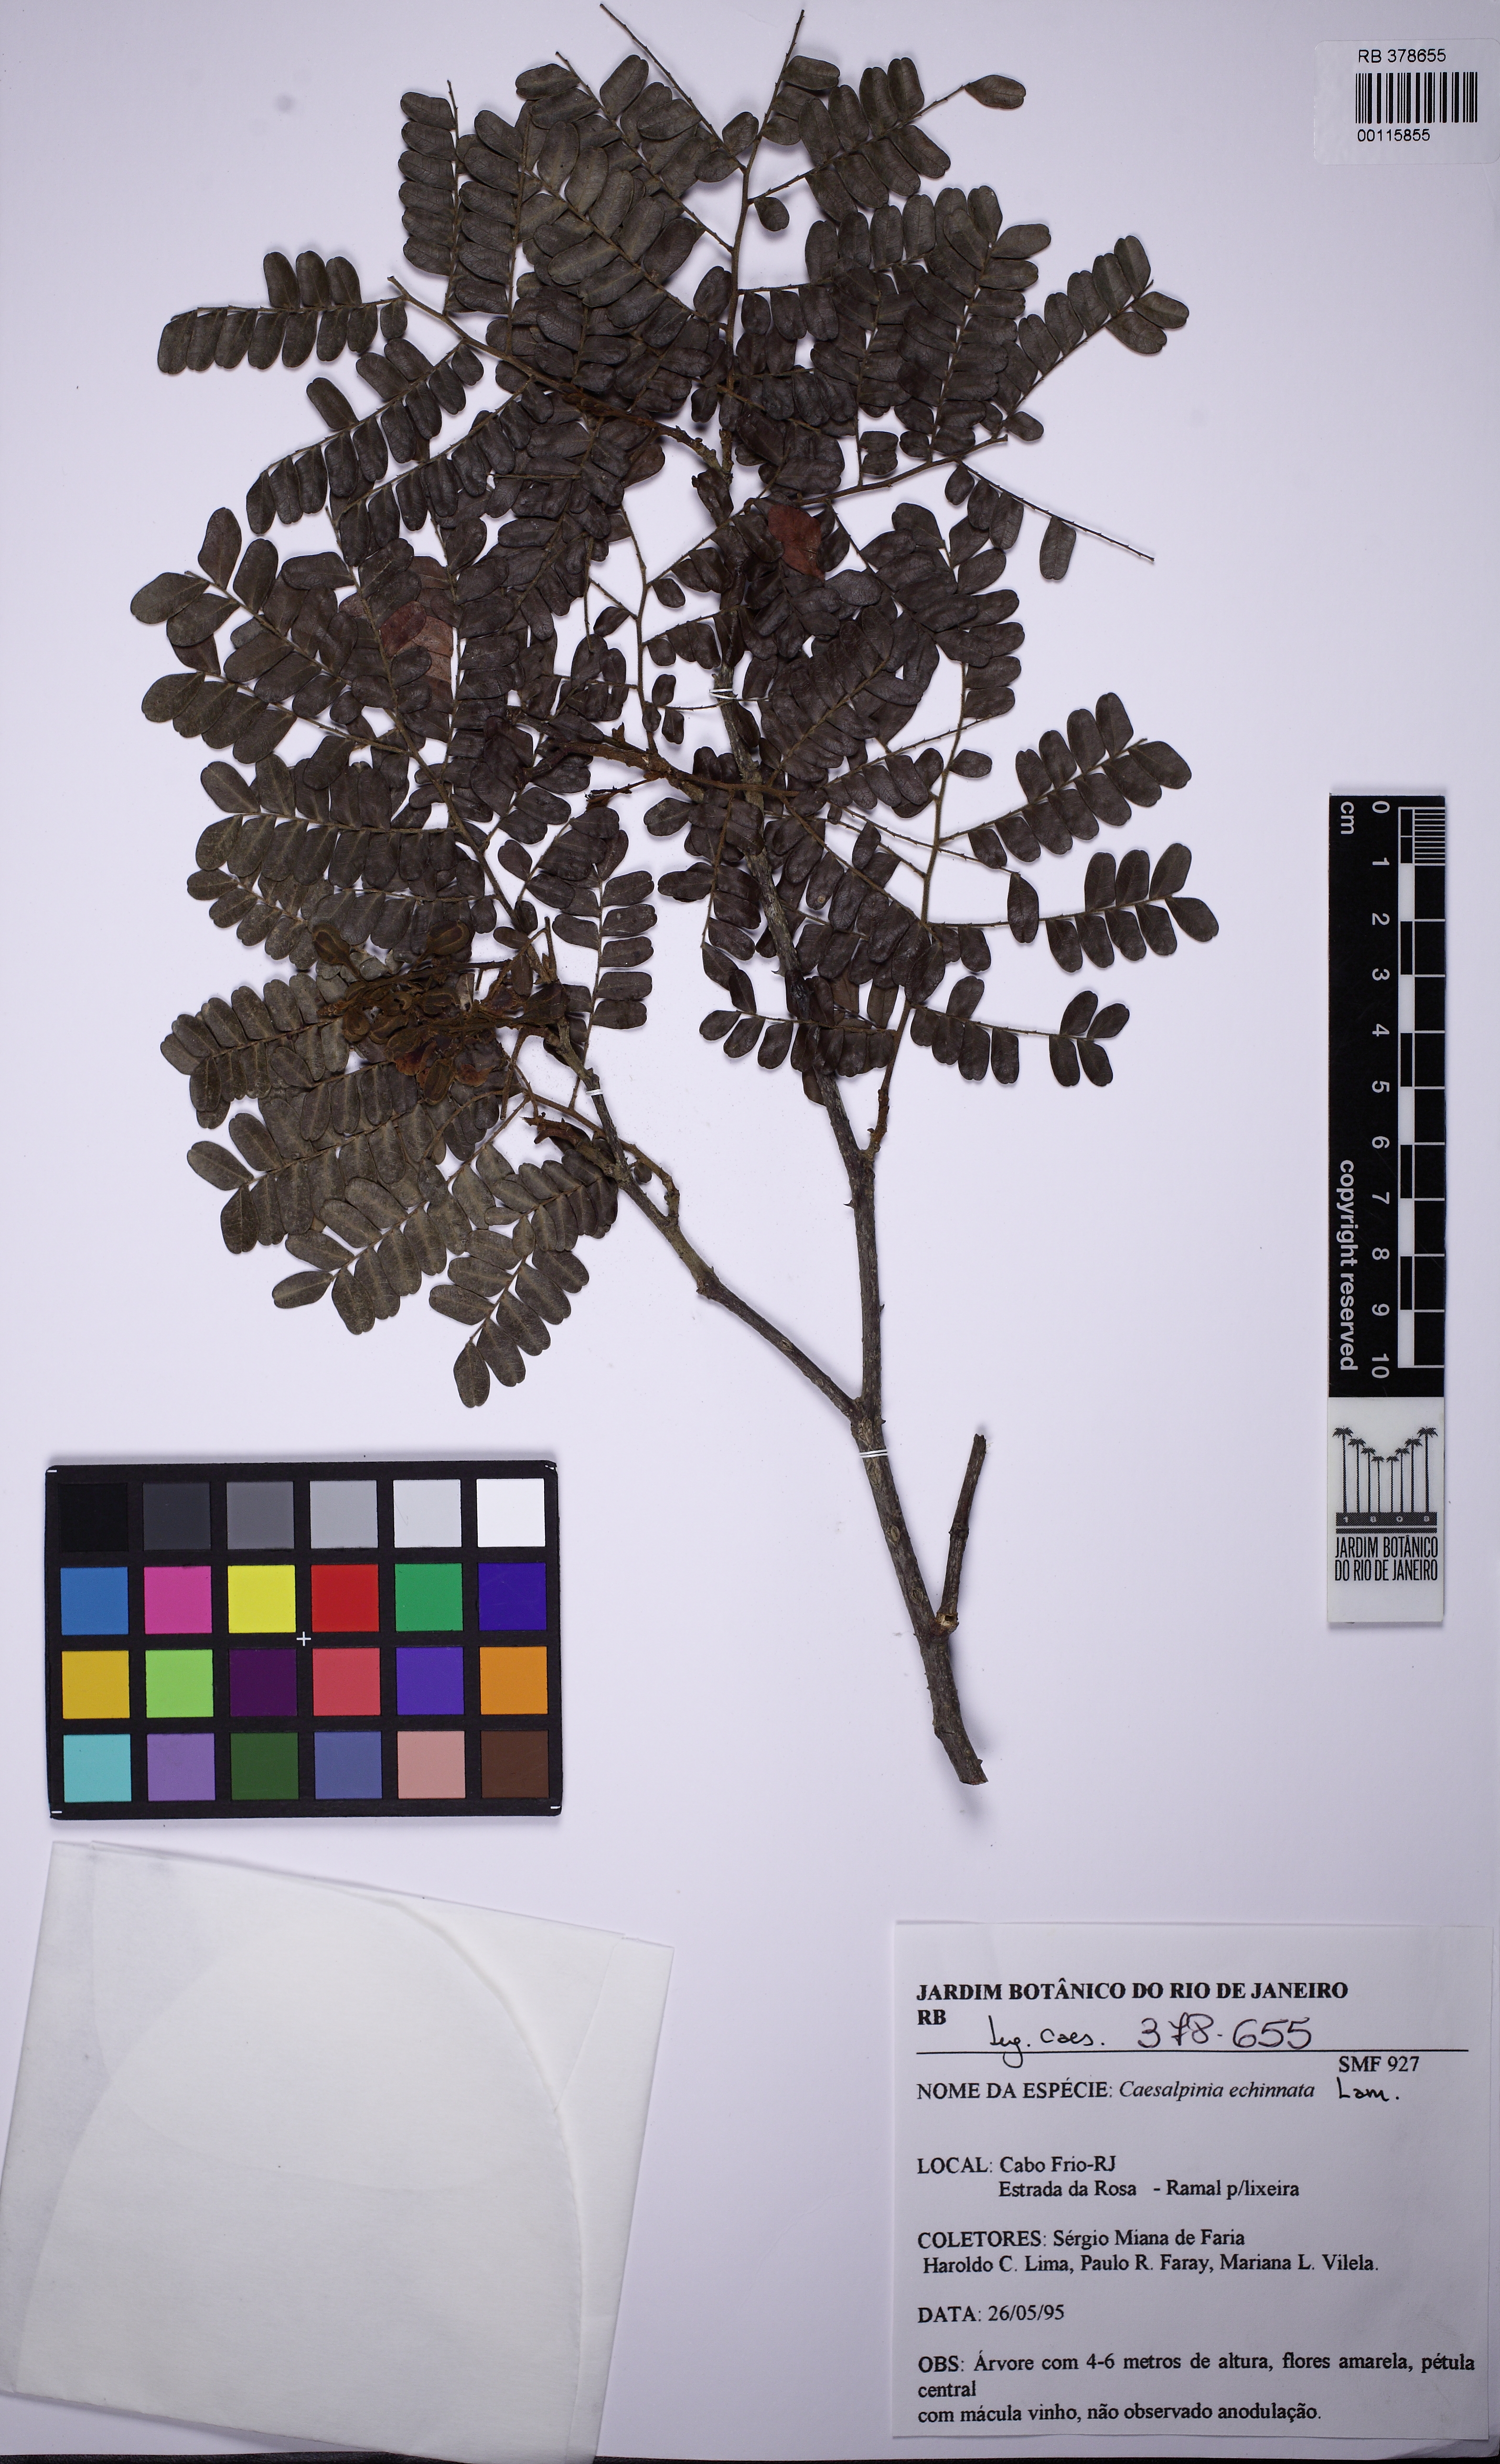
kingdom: Plantae
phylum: Tracheophyta
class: Magnoliopsida
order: Fabales
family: Fabaceae
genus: Paubrasilia
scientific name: Paubrasilia echinata
